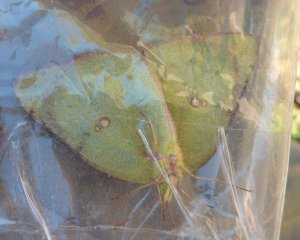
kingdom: Animalia
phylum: Arthropoda
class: Insecta
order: Lepidoptera
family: Pieridae
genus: Colias
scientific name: Colias interior
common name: Pink-edged Sulphur
